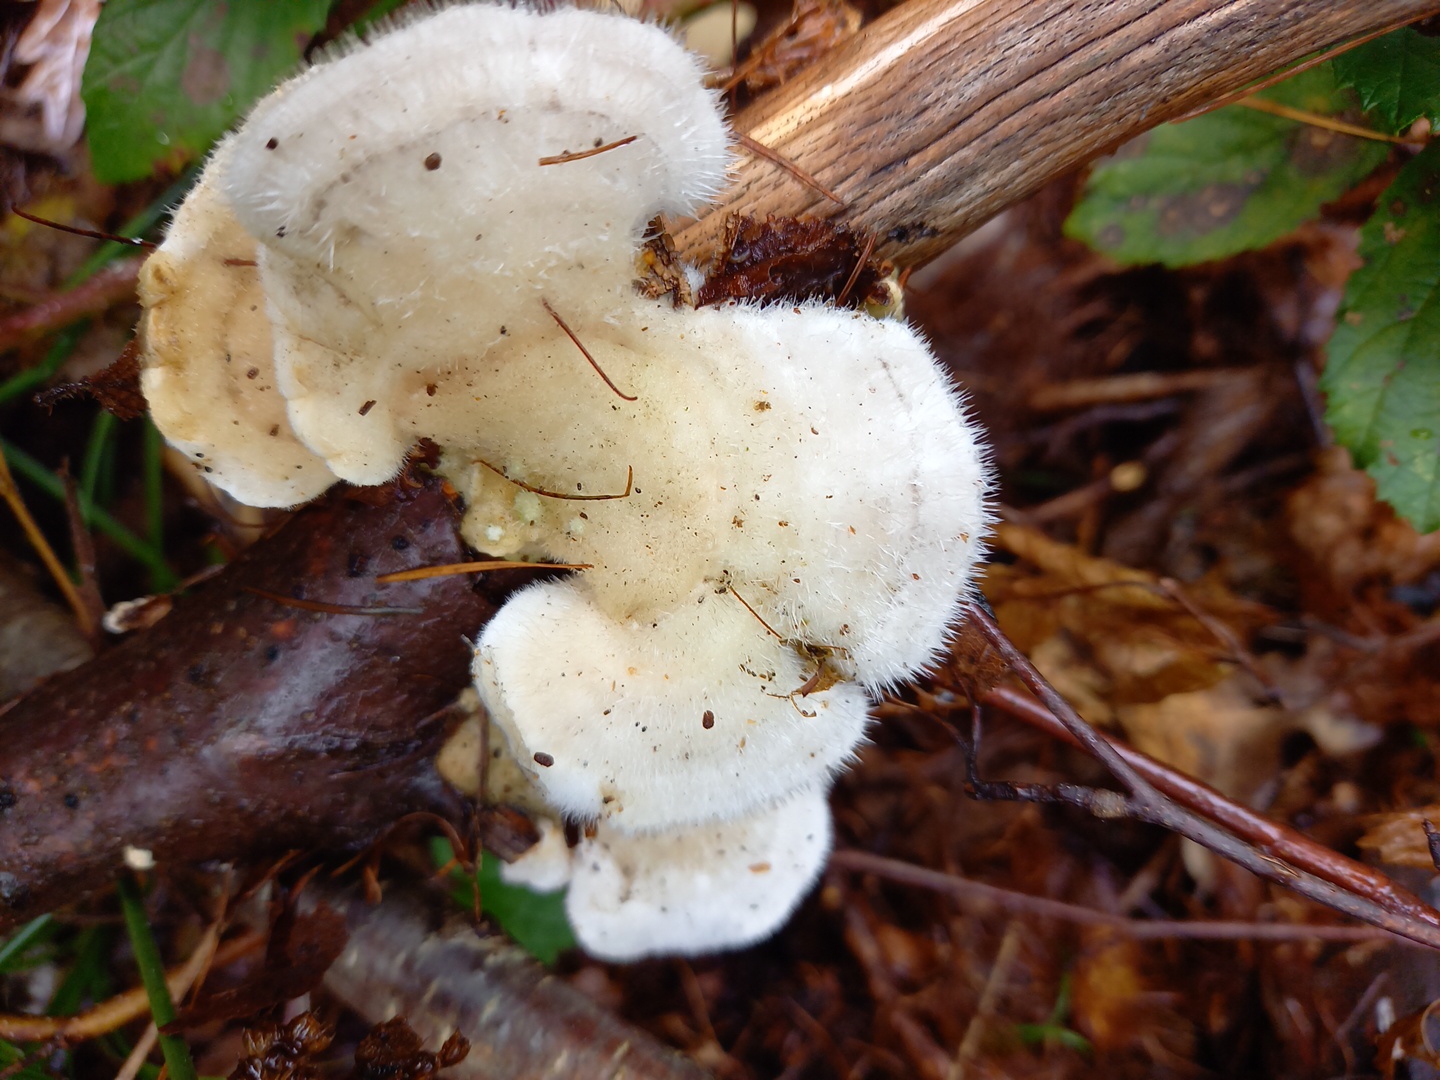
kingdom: Fungi
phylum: Basidiomycota
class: Agaricomycetes
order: Polyporales
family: Polyporaceae
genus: Trametes
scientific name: Trametes hirsuta
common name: håret læderporesvamp
